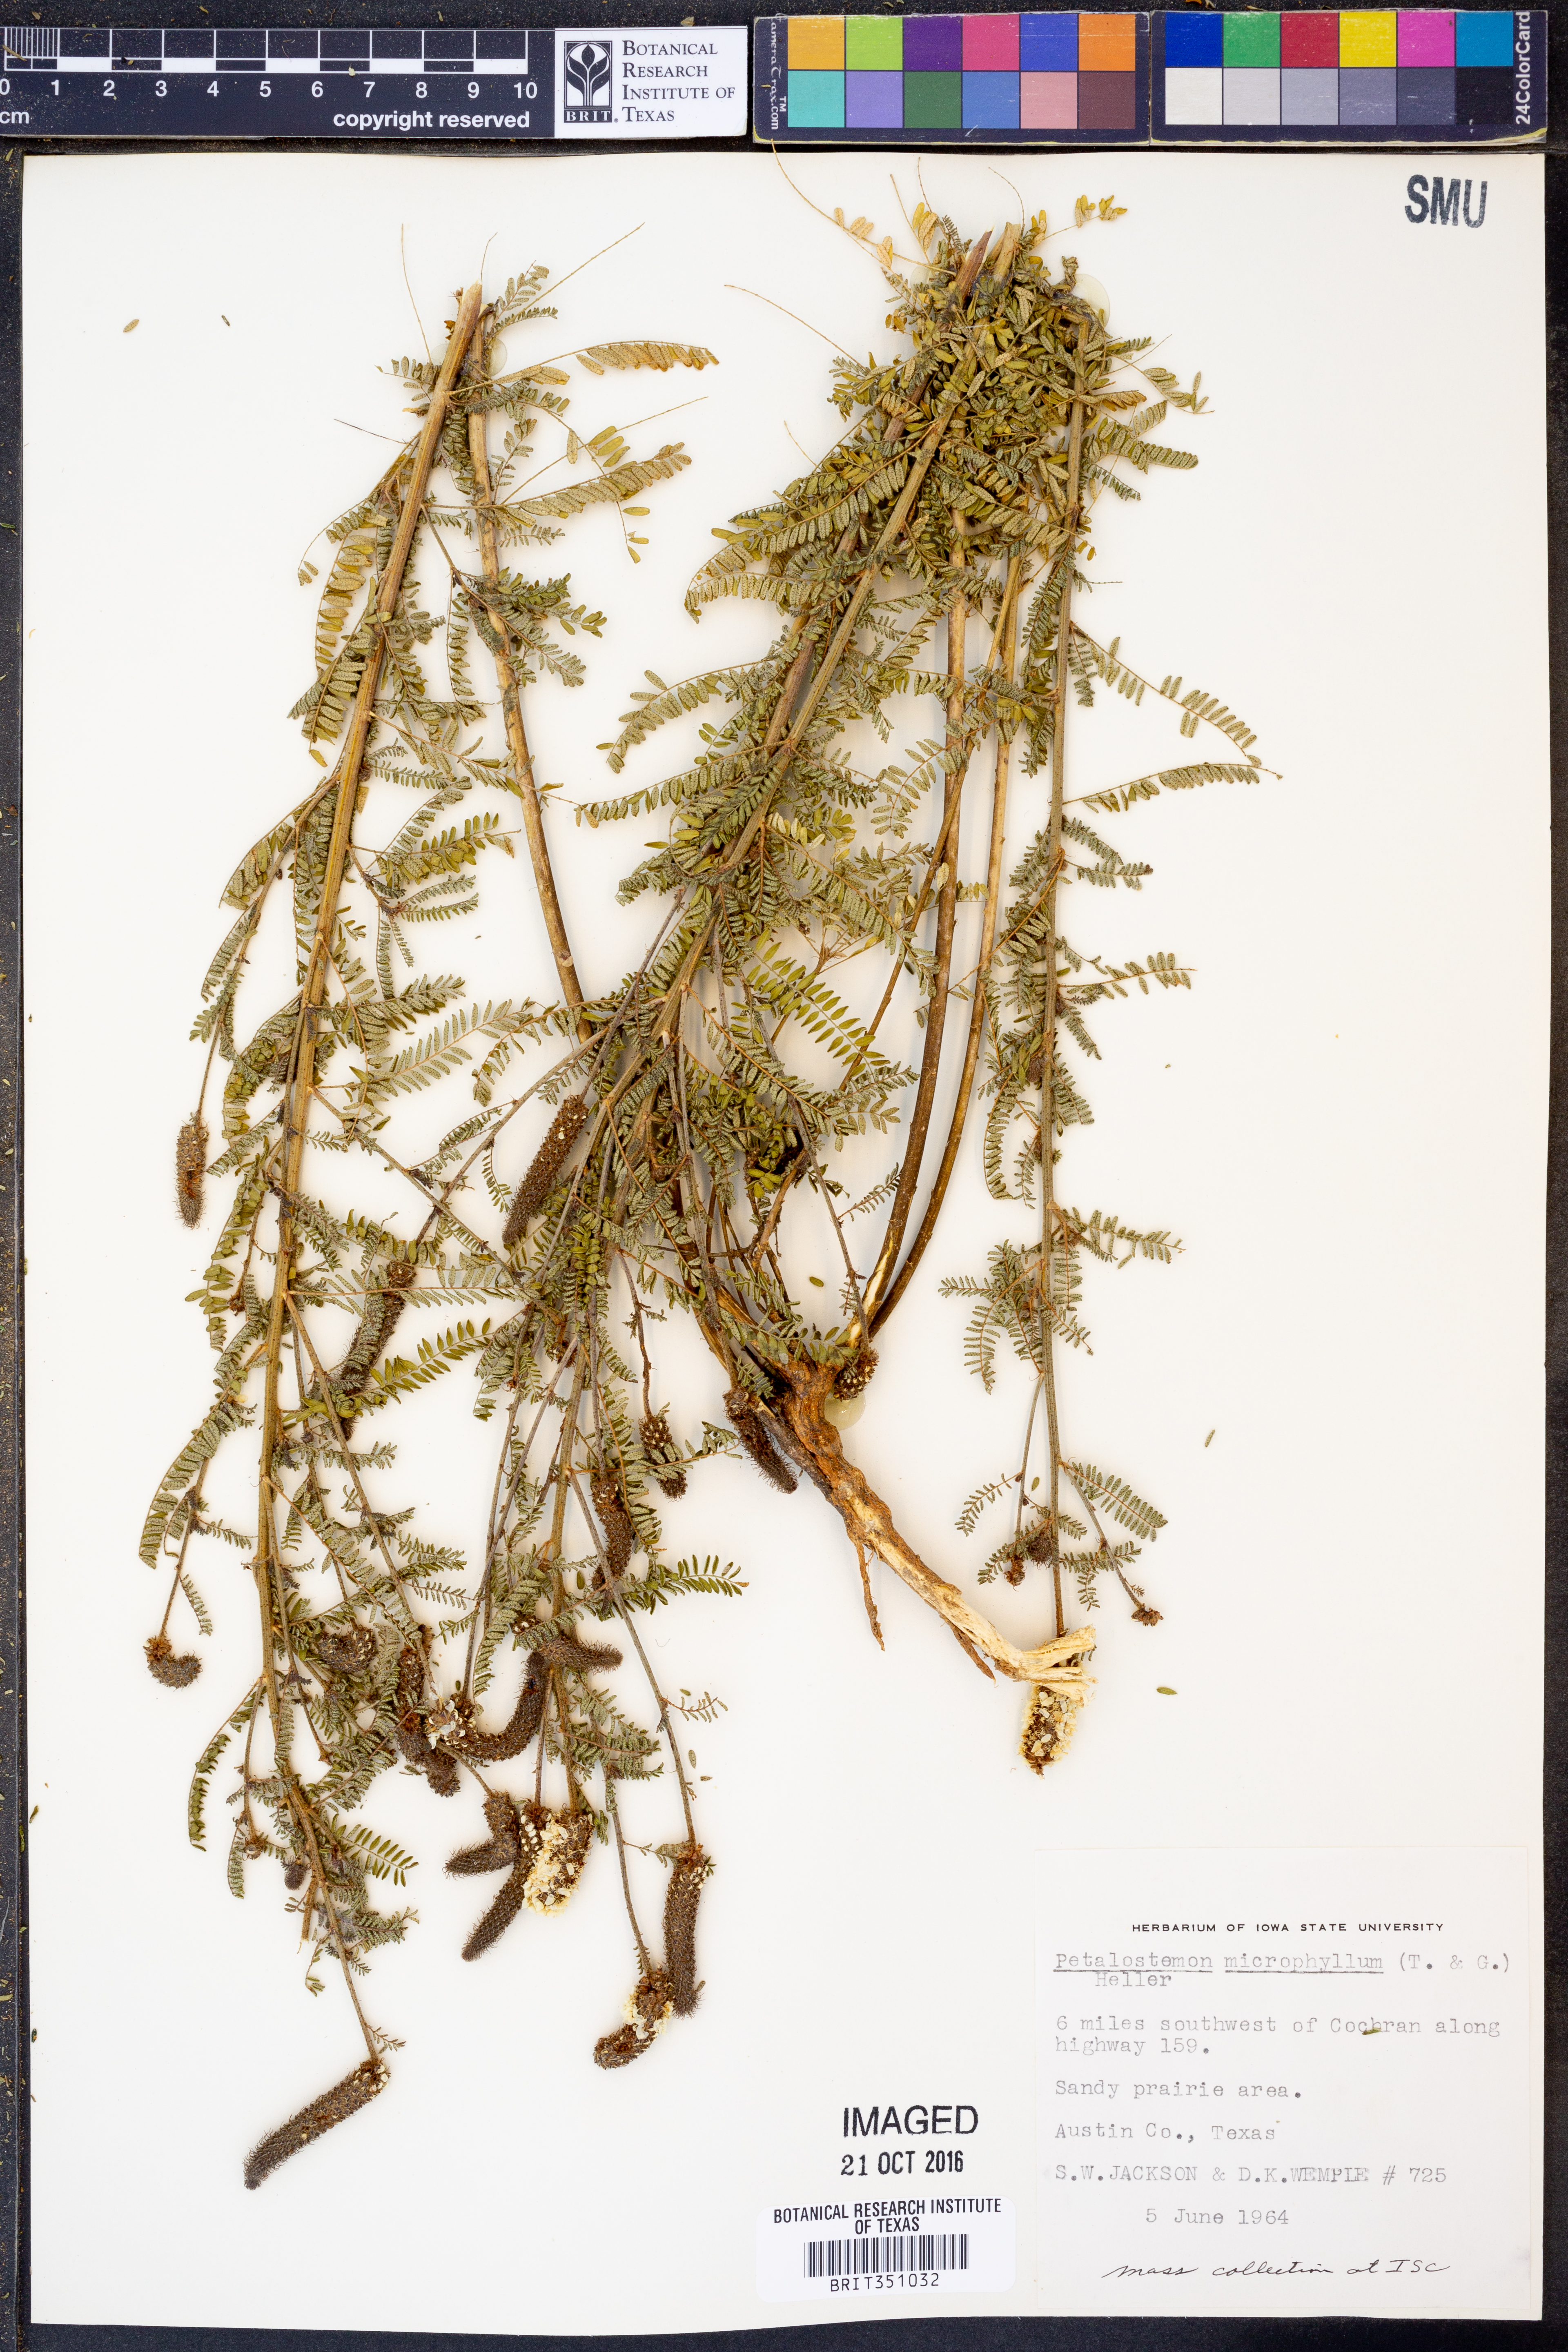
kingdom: Plantae
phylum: Tracheophyta
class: Magnoliopsida
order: Fabales
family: Fabaceae
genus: Dalea
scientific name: Dalea drummondiana
